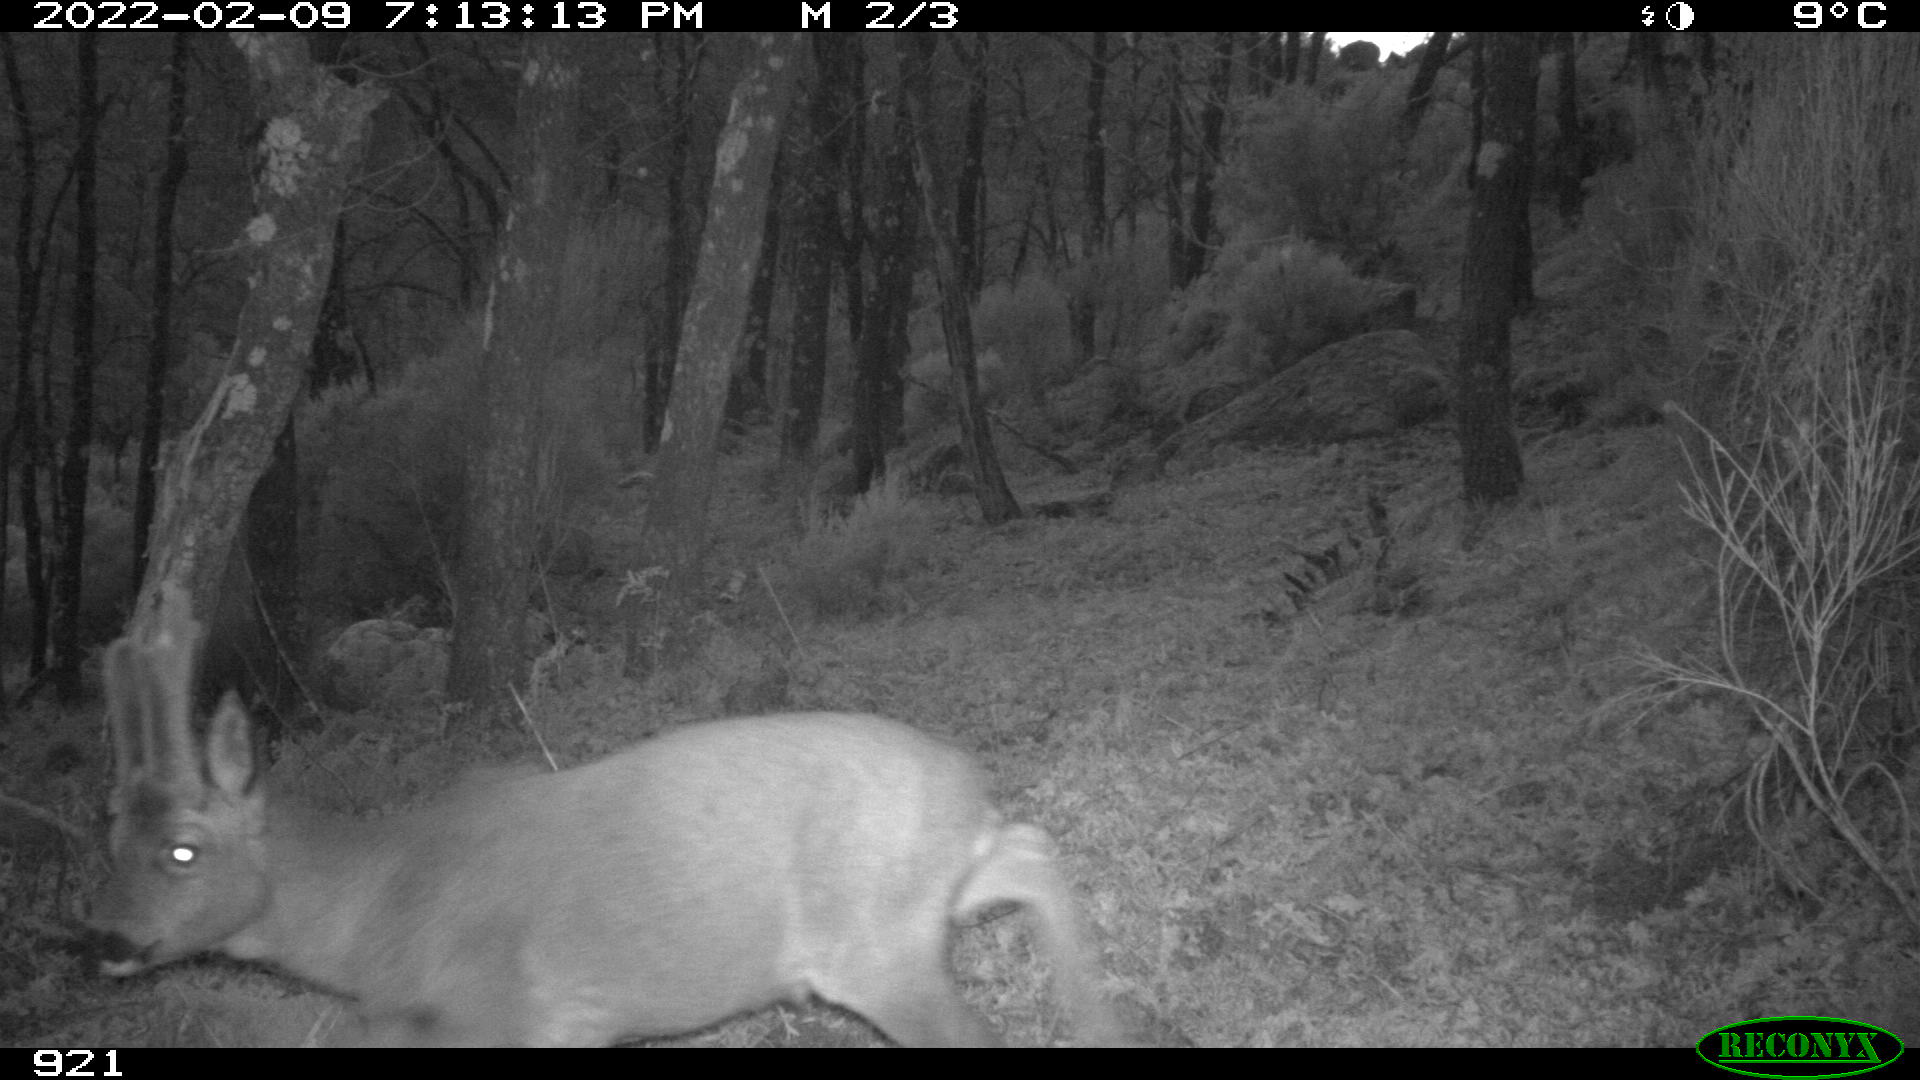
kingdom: Animalia
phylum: Chordata
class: Mammalia
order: Artiodactyla
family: Cervidae
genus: Capreolus
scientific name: Capreolus capreolus
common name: Western roe deer
